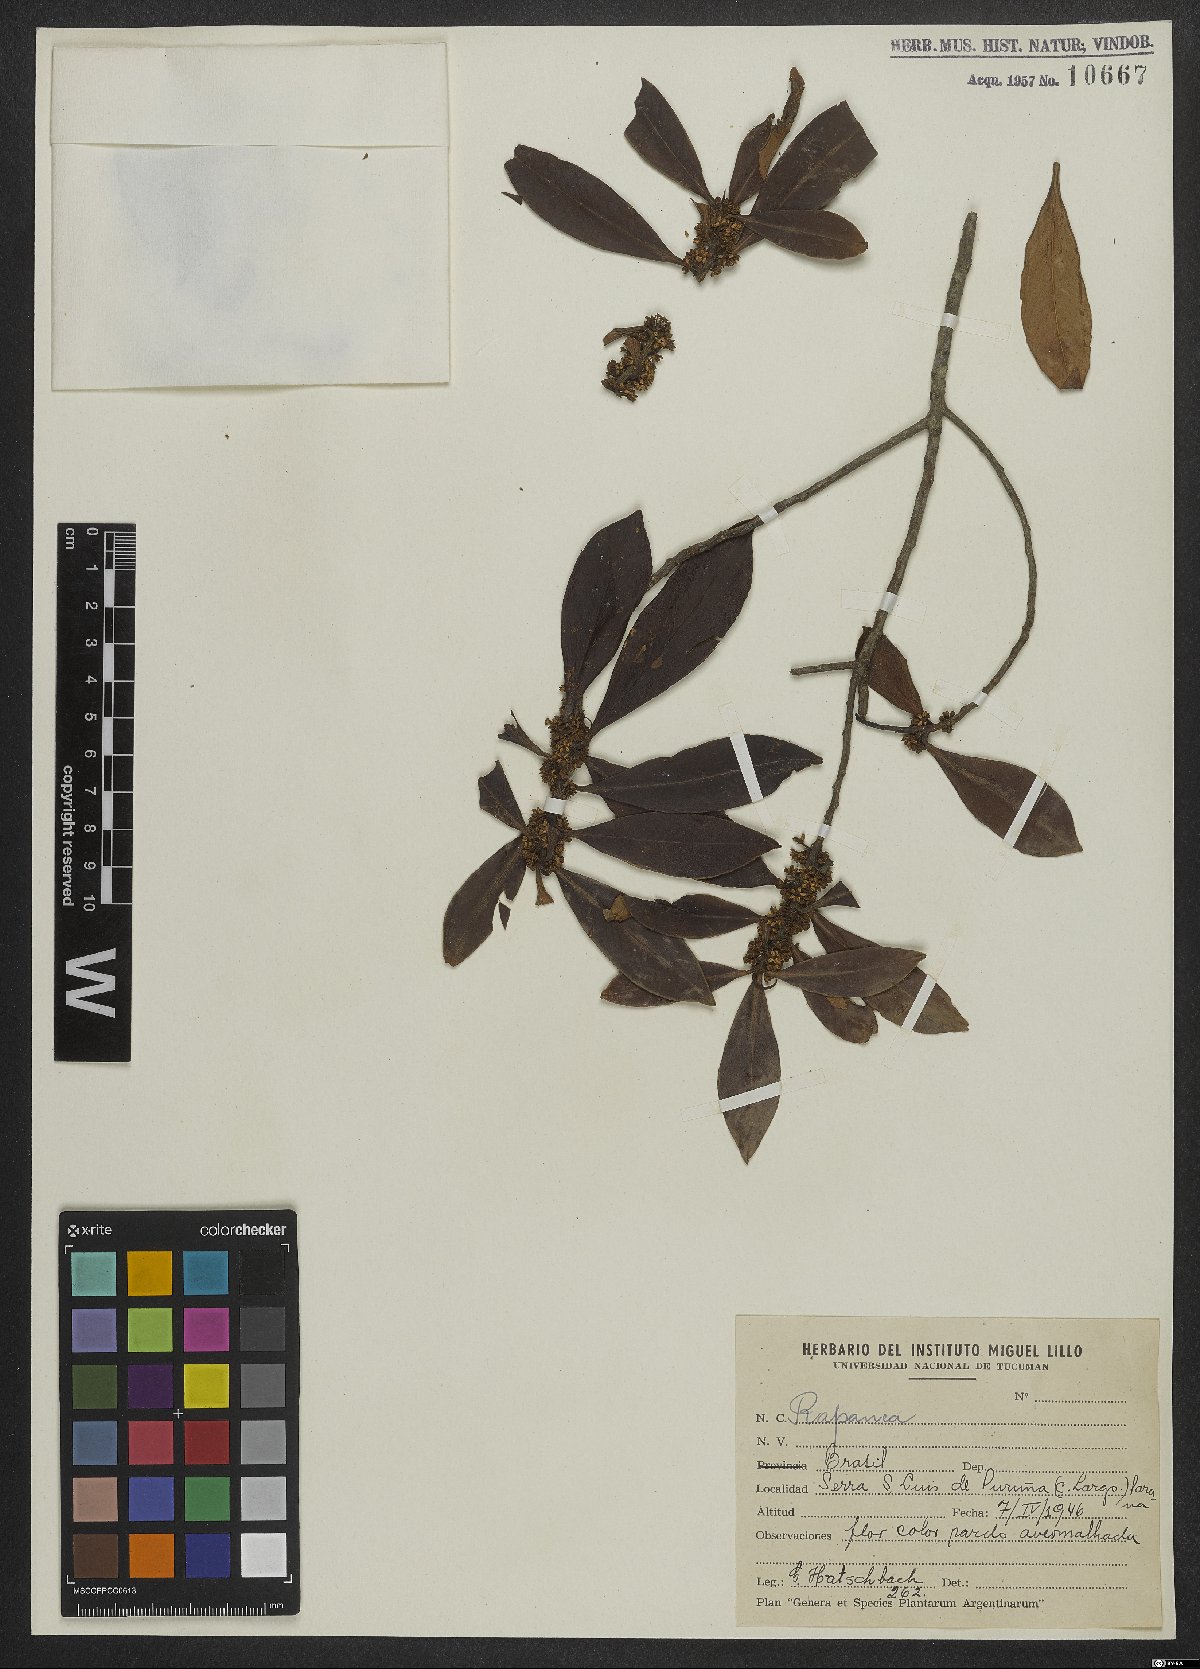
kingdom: Plantae
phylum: Tracheophyta
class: Magnoliopsida
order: Ericales
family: Primulaceae
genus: Myrsine
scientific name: Myrsine
